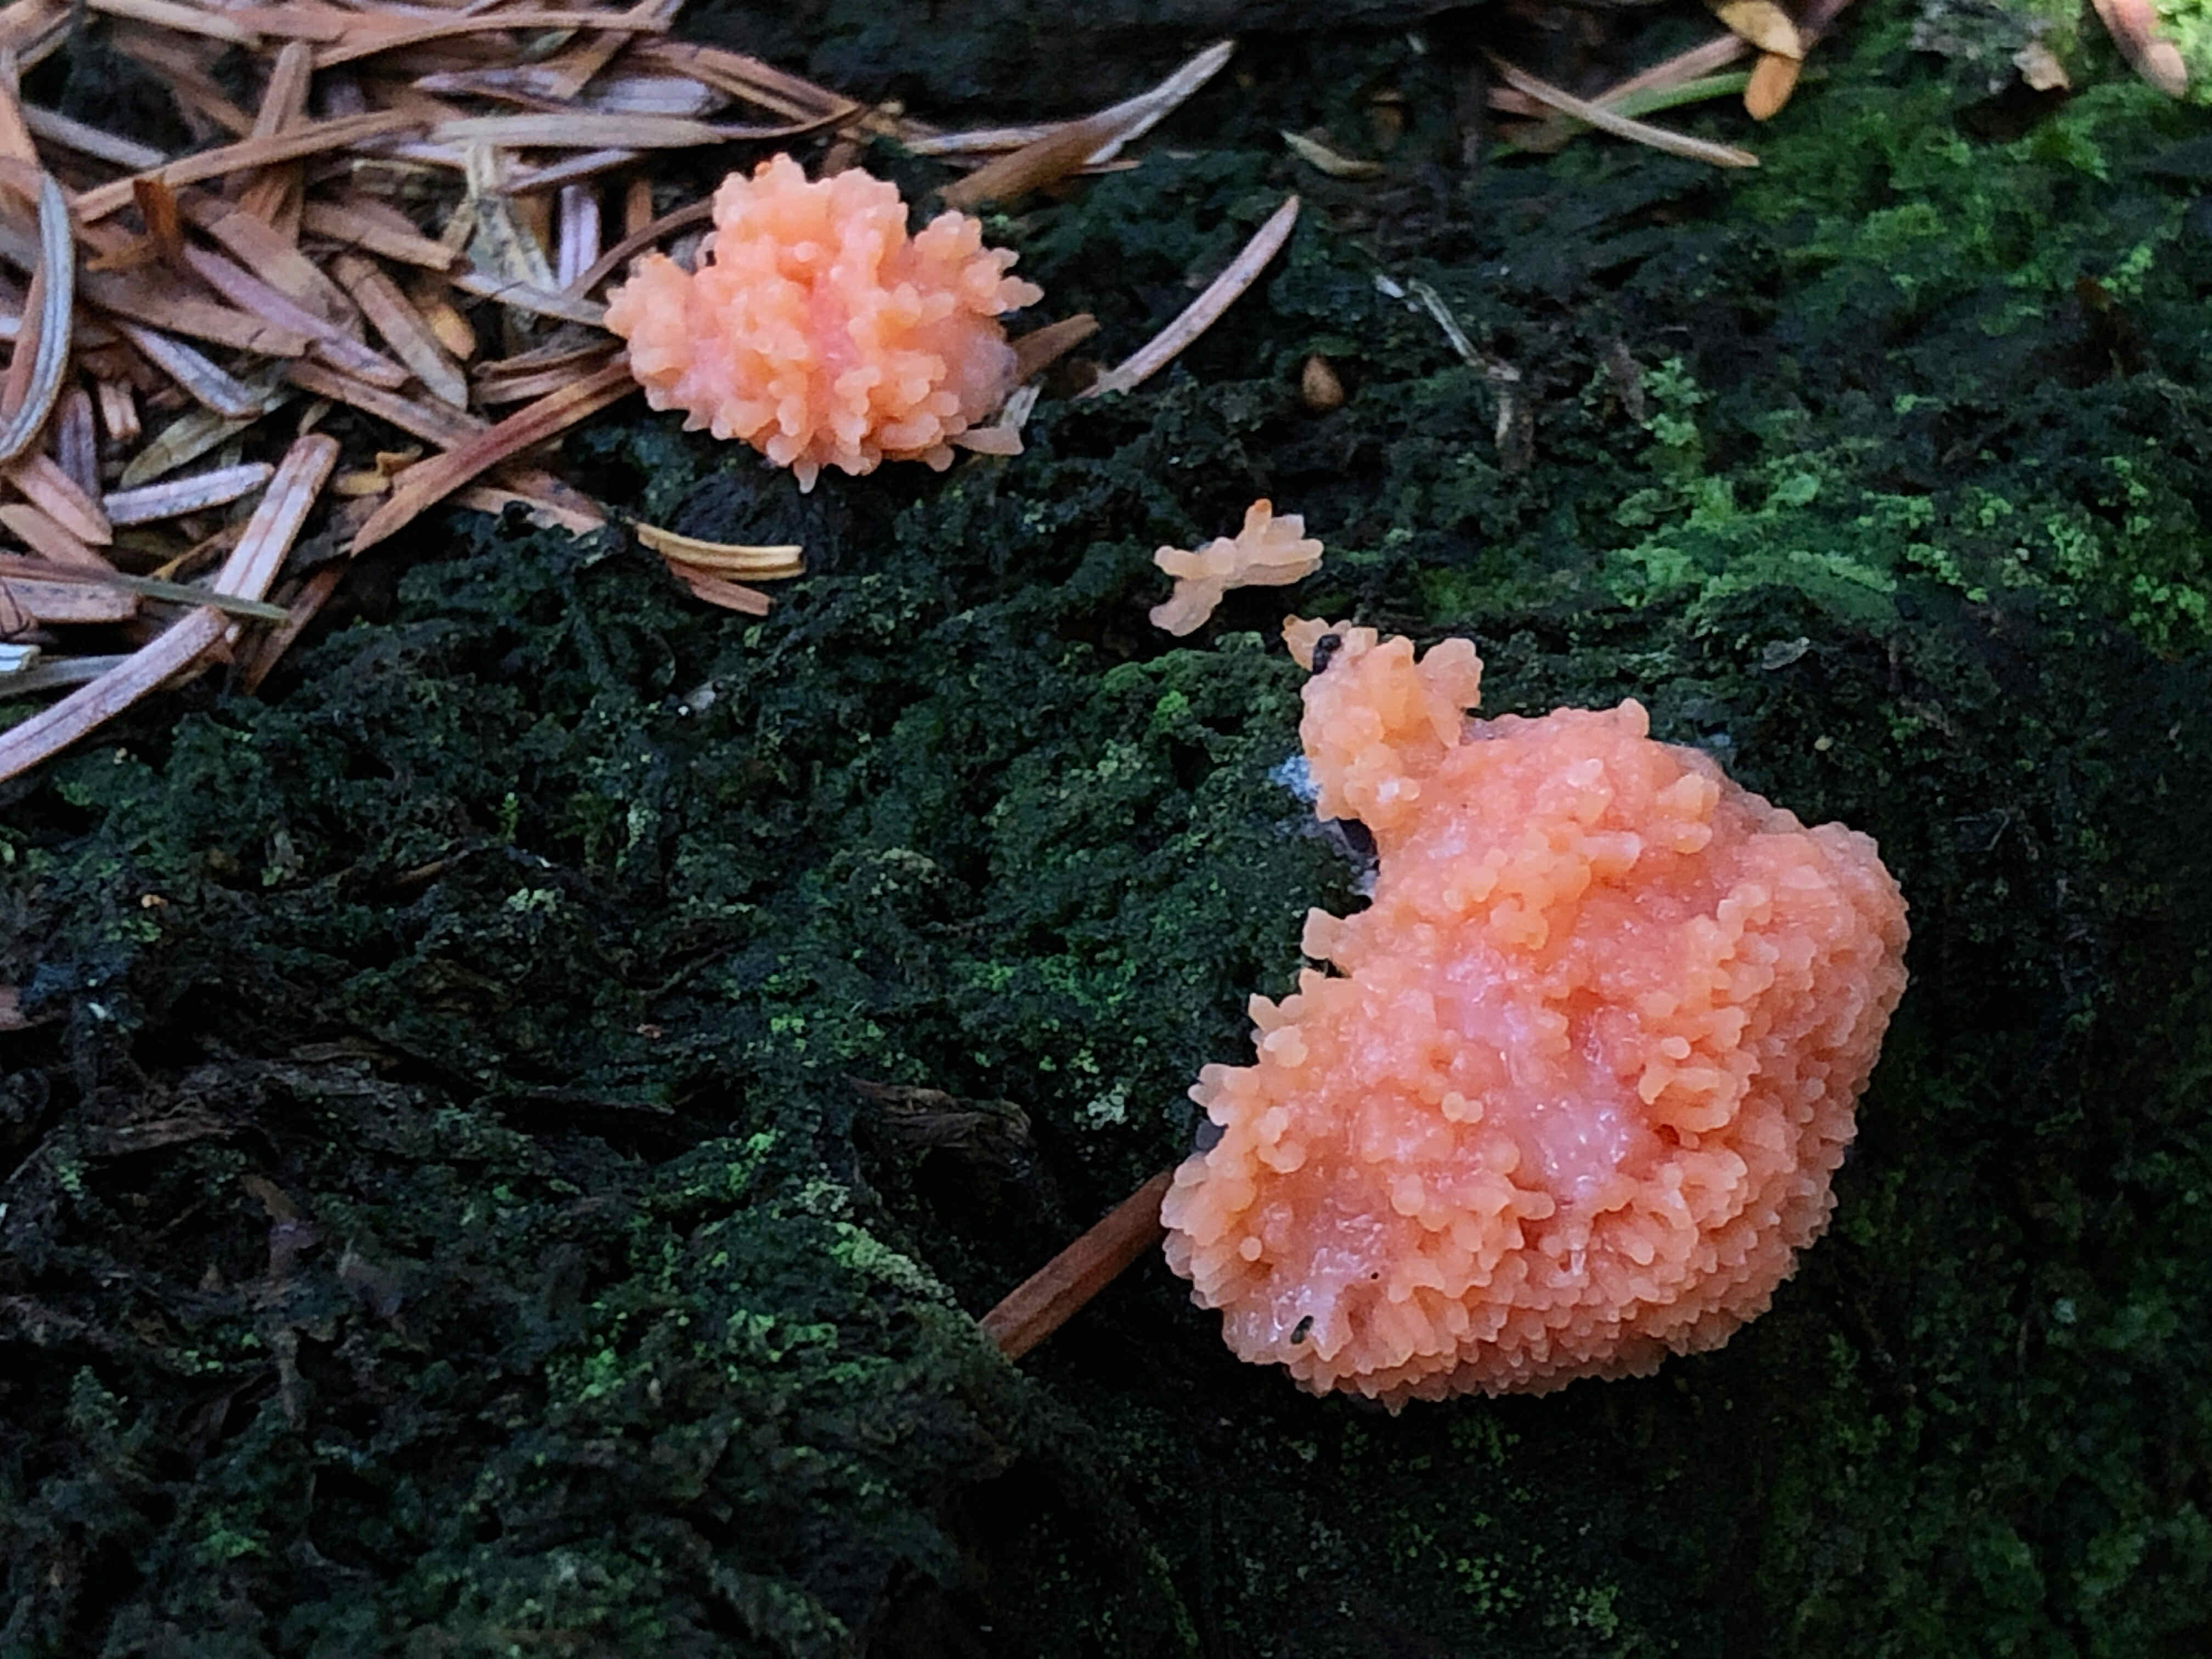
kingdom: Protozoa
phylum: Mycetozoa
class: Myxomycetes
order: Cribrariales
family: Tubiferaceae
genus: Tubifera
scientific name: Tubifera ferruginosa
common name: kanel-støvrør
